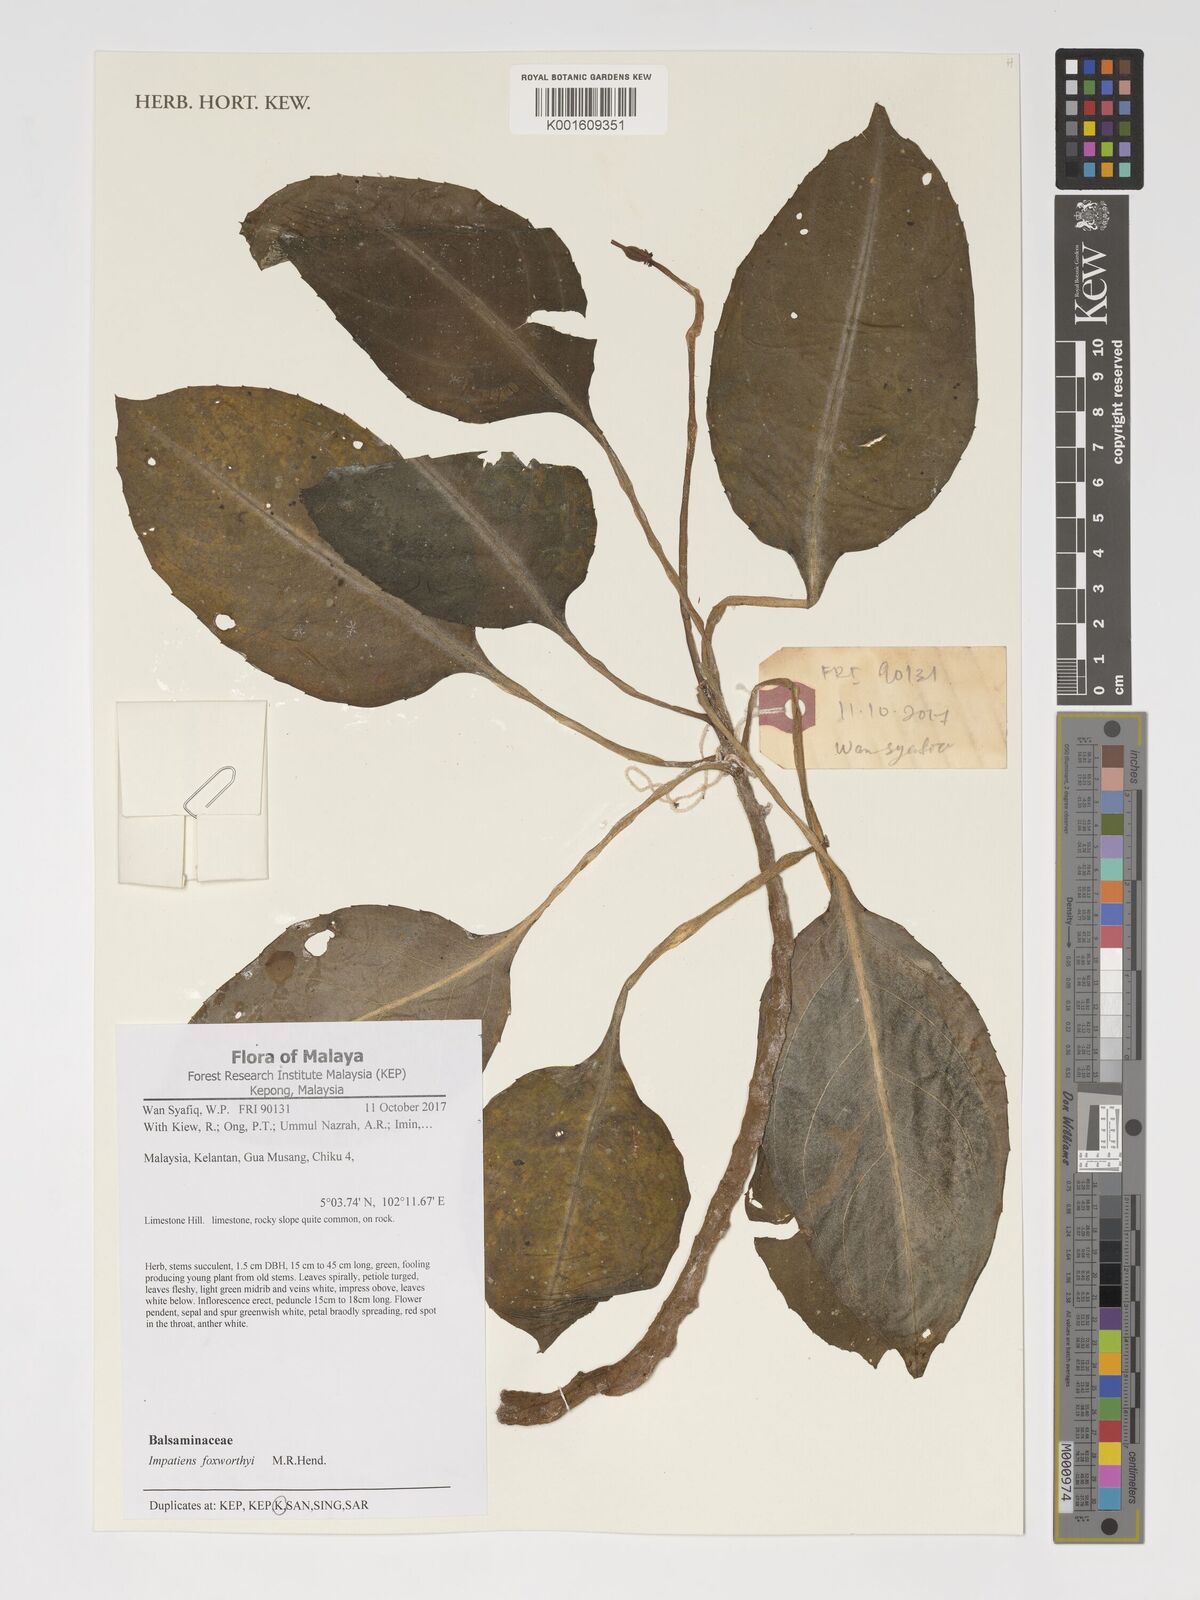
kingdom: Plantae
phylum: Tracheophyta
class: Magnoliopsida
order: Ericales
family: Balsaminaceae
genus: Impatiens
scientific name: Impatiens foxworthyi
